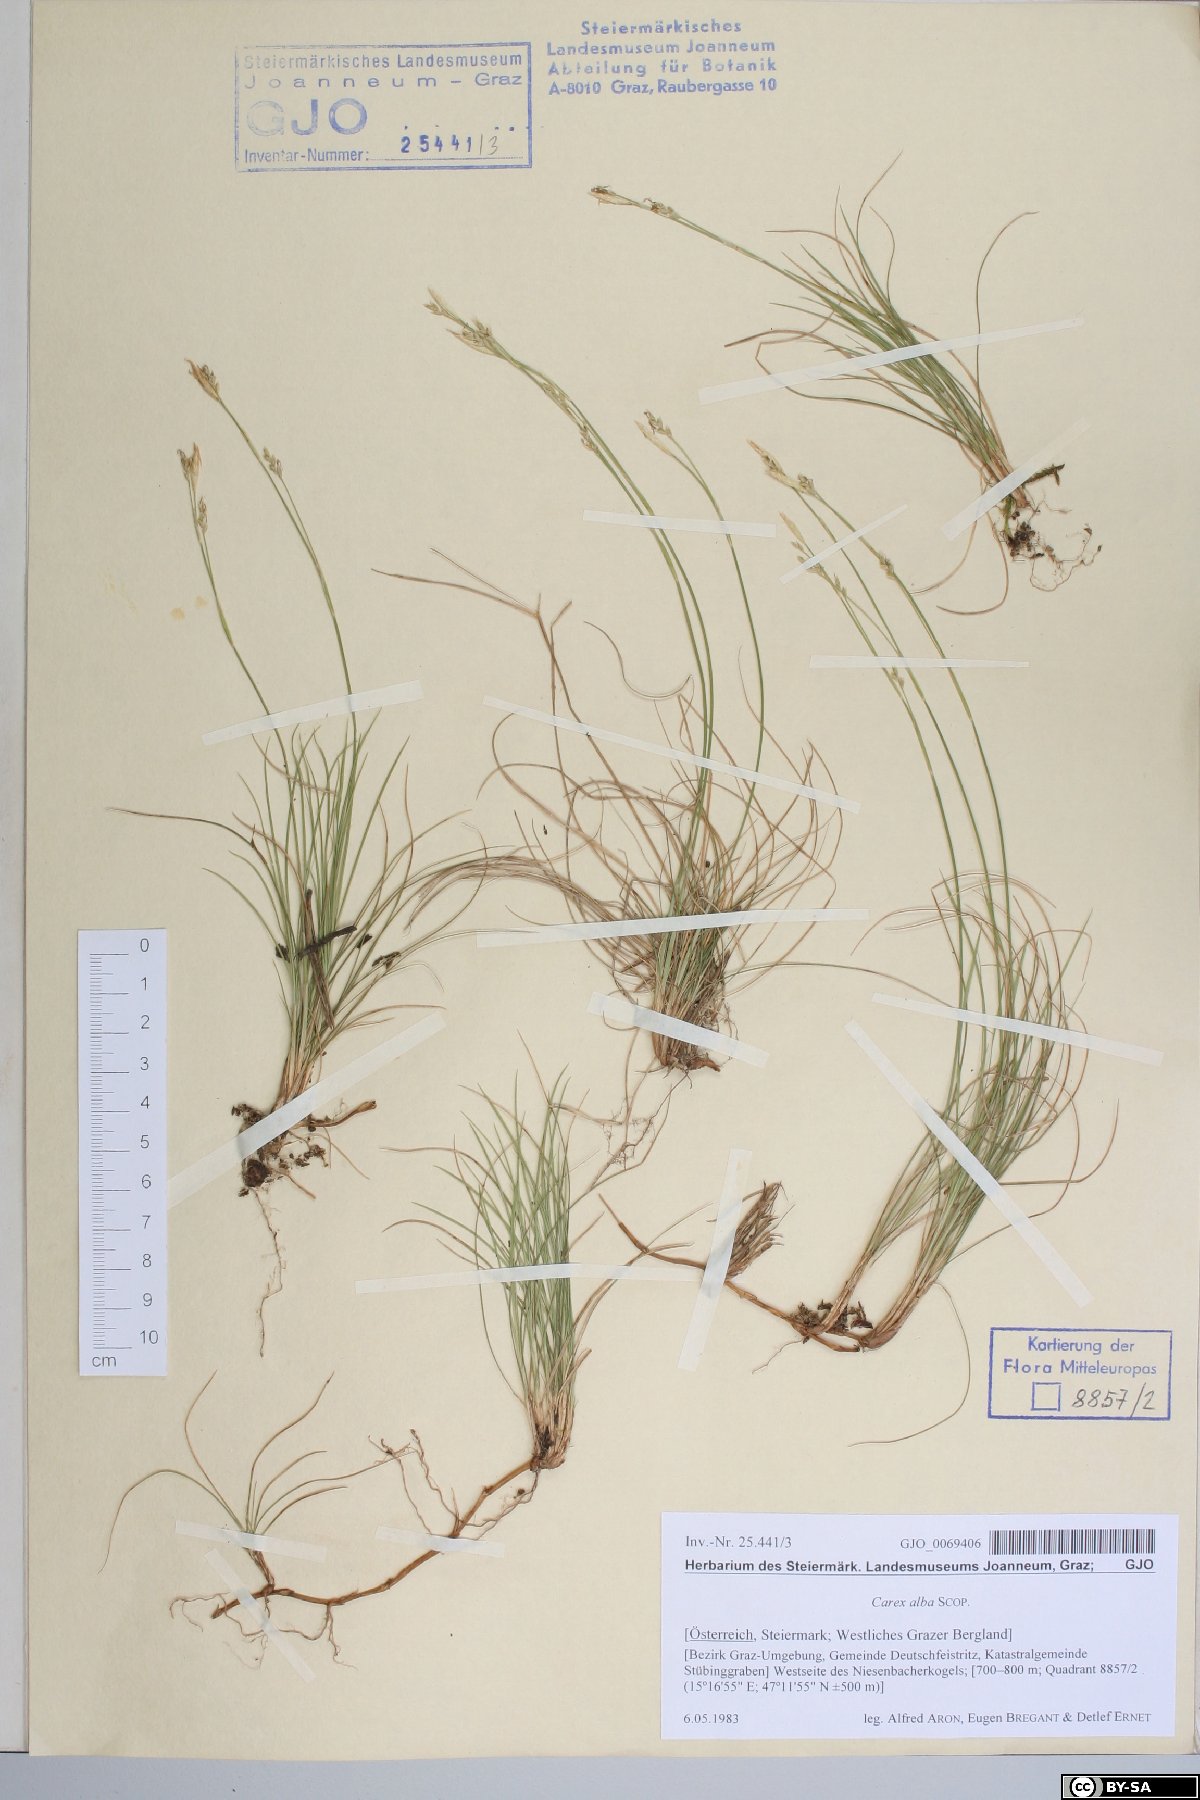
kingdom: Plantae
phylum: Tracheophyta
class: Liliopsida
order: Poales
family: Cyperaceae
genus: Carex
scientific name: Carex alba
